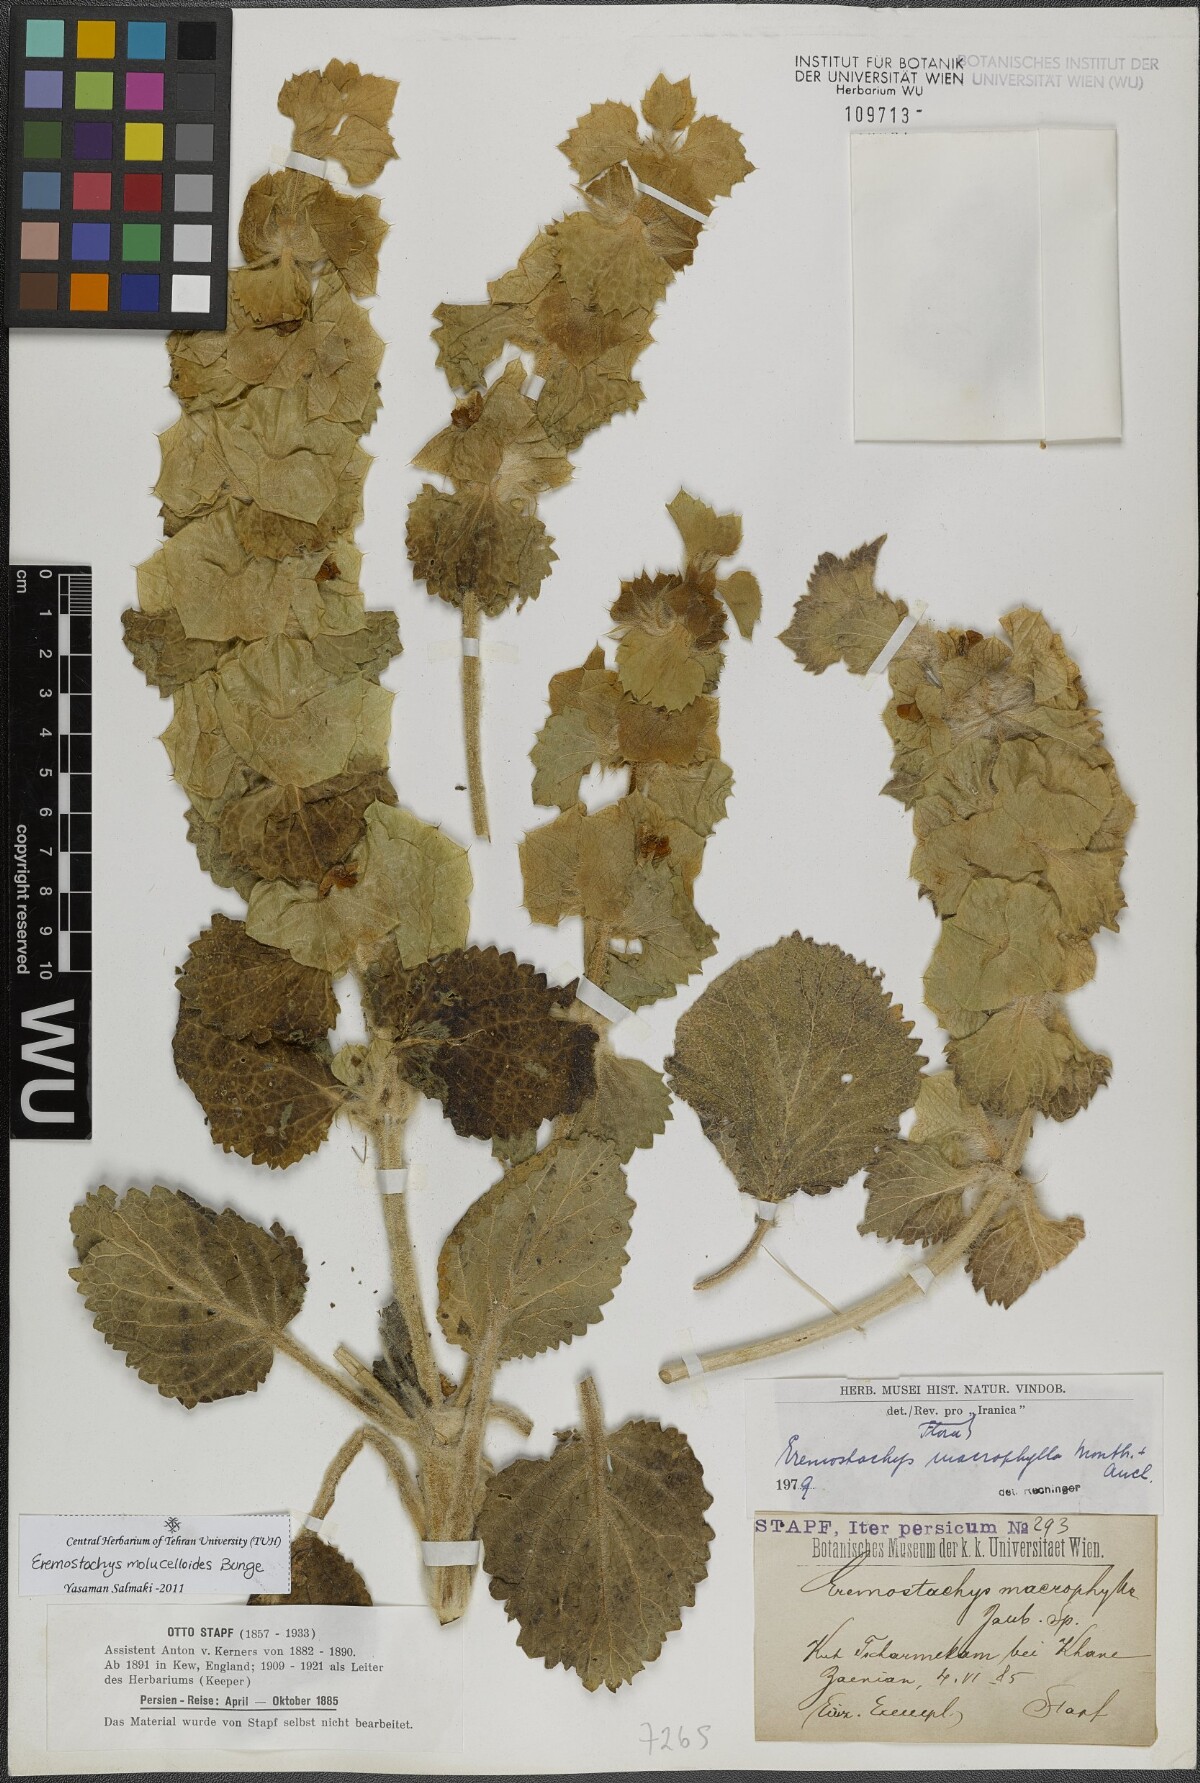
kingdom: Plantae
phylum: Tracheophyta
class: Magnoliopsida
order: Lamiales
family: Lamiaceae
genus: Phlomoides
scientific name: Phlomoides molucelloides
